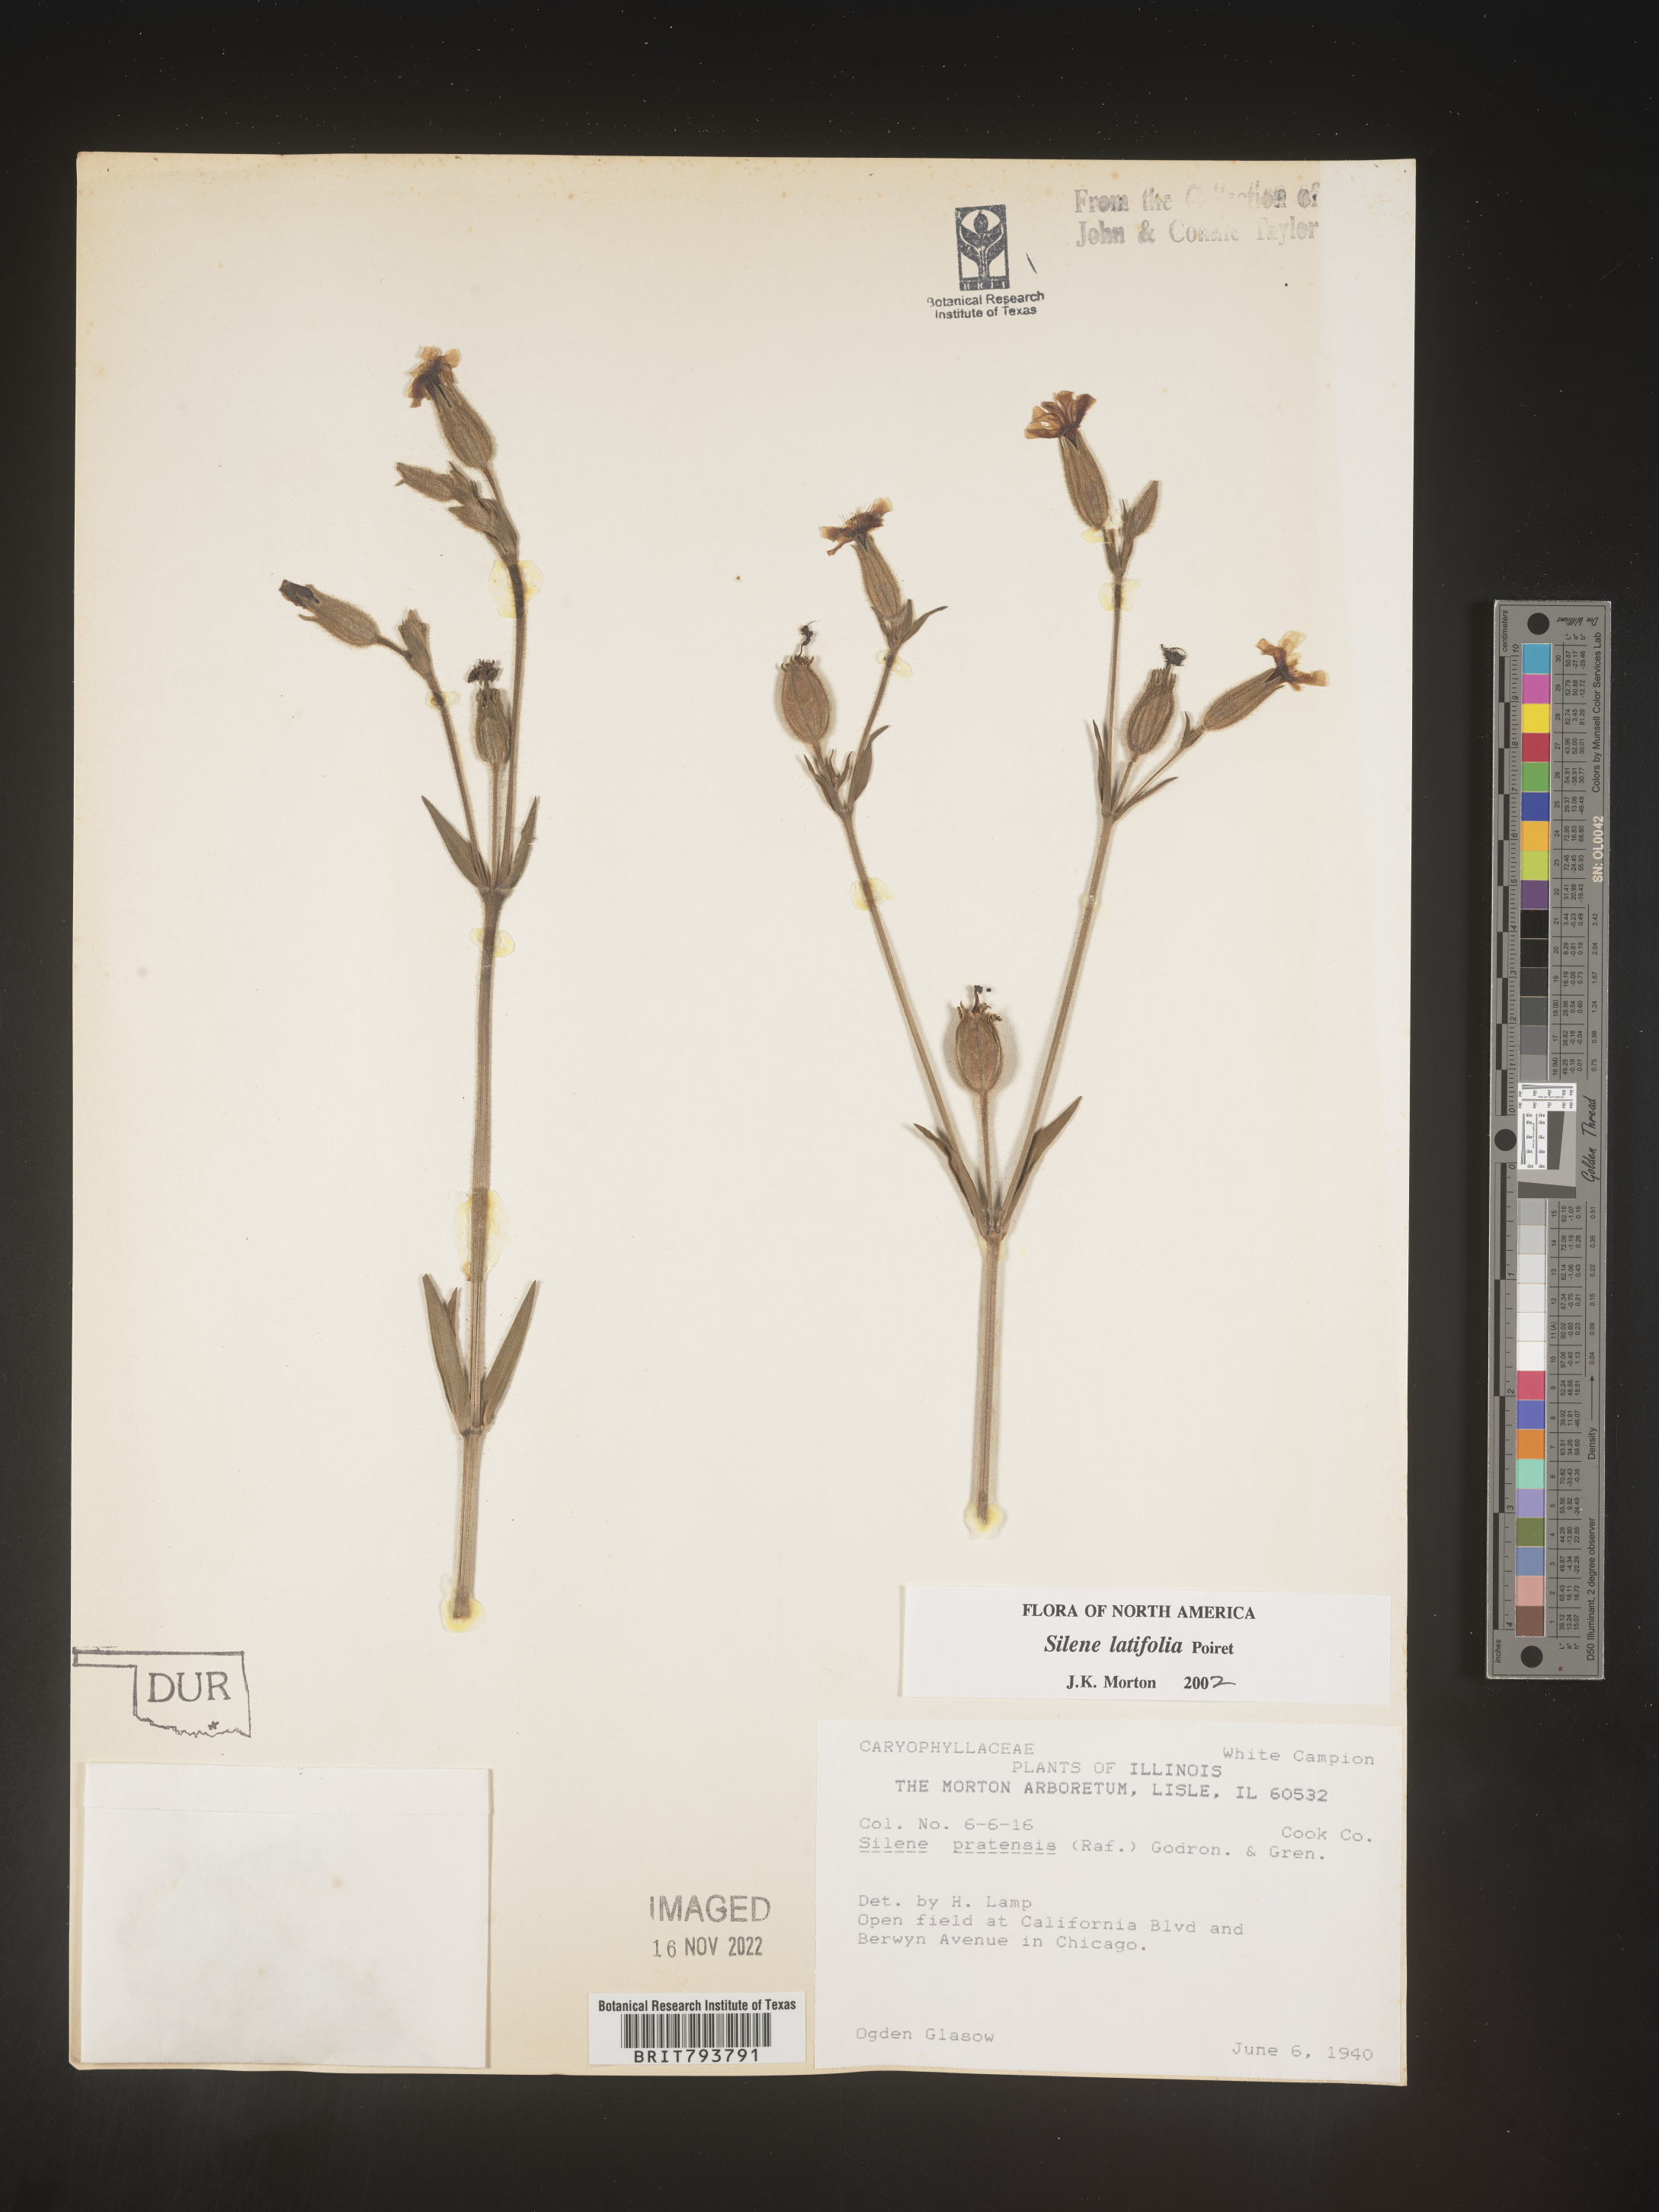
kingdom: Plantae
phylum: Tracheophyta
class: Magnoliopsida
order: Caryophyllales
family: Caryophyllaceae
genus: Silene
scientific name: Silene latifolia
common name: White campion
